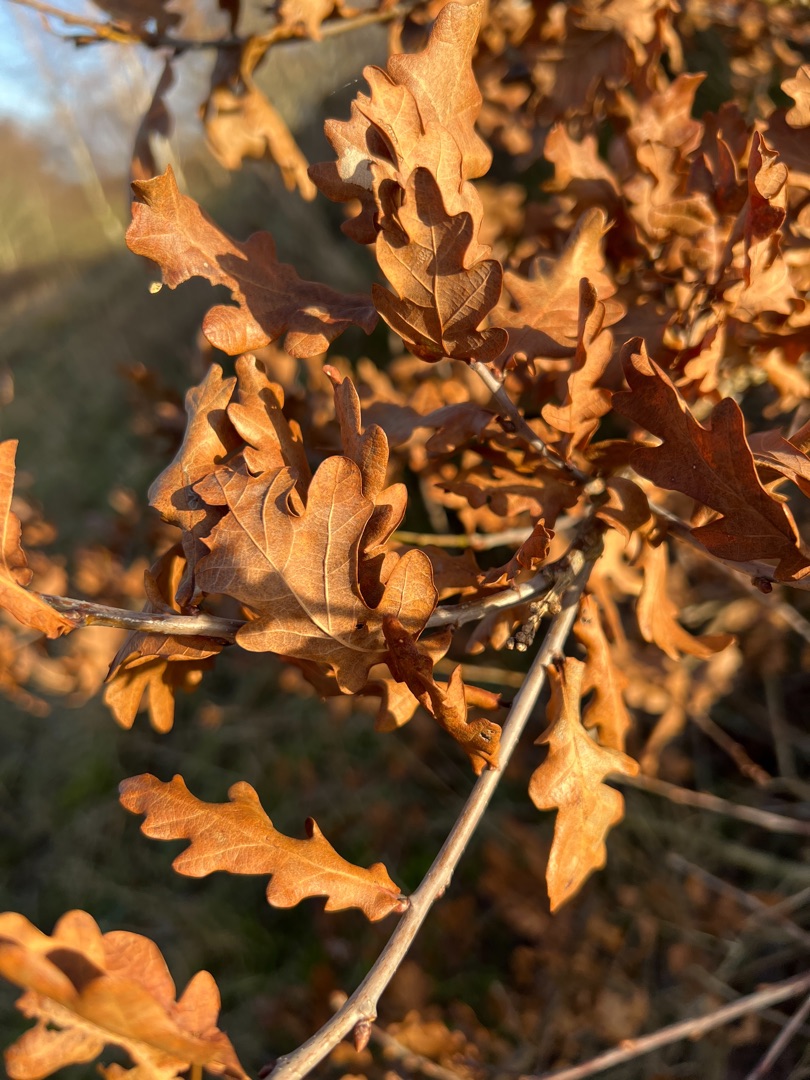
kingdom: Plantae
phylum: Tracheophyta
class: Magnoliopsida
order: Fagales
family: Fagaceae
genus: Quercus
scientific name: Quercus robur
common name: Stilk-eg/almindelig eg
